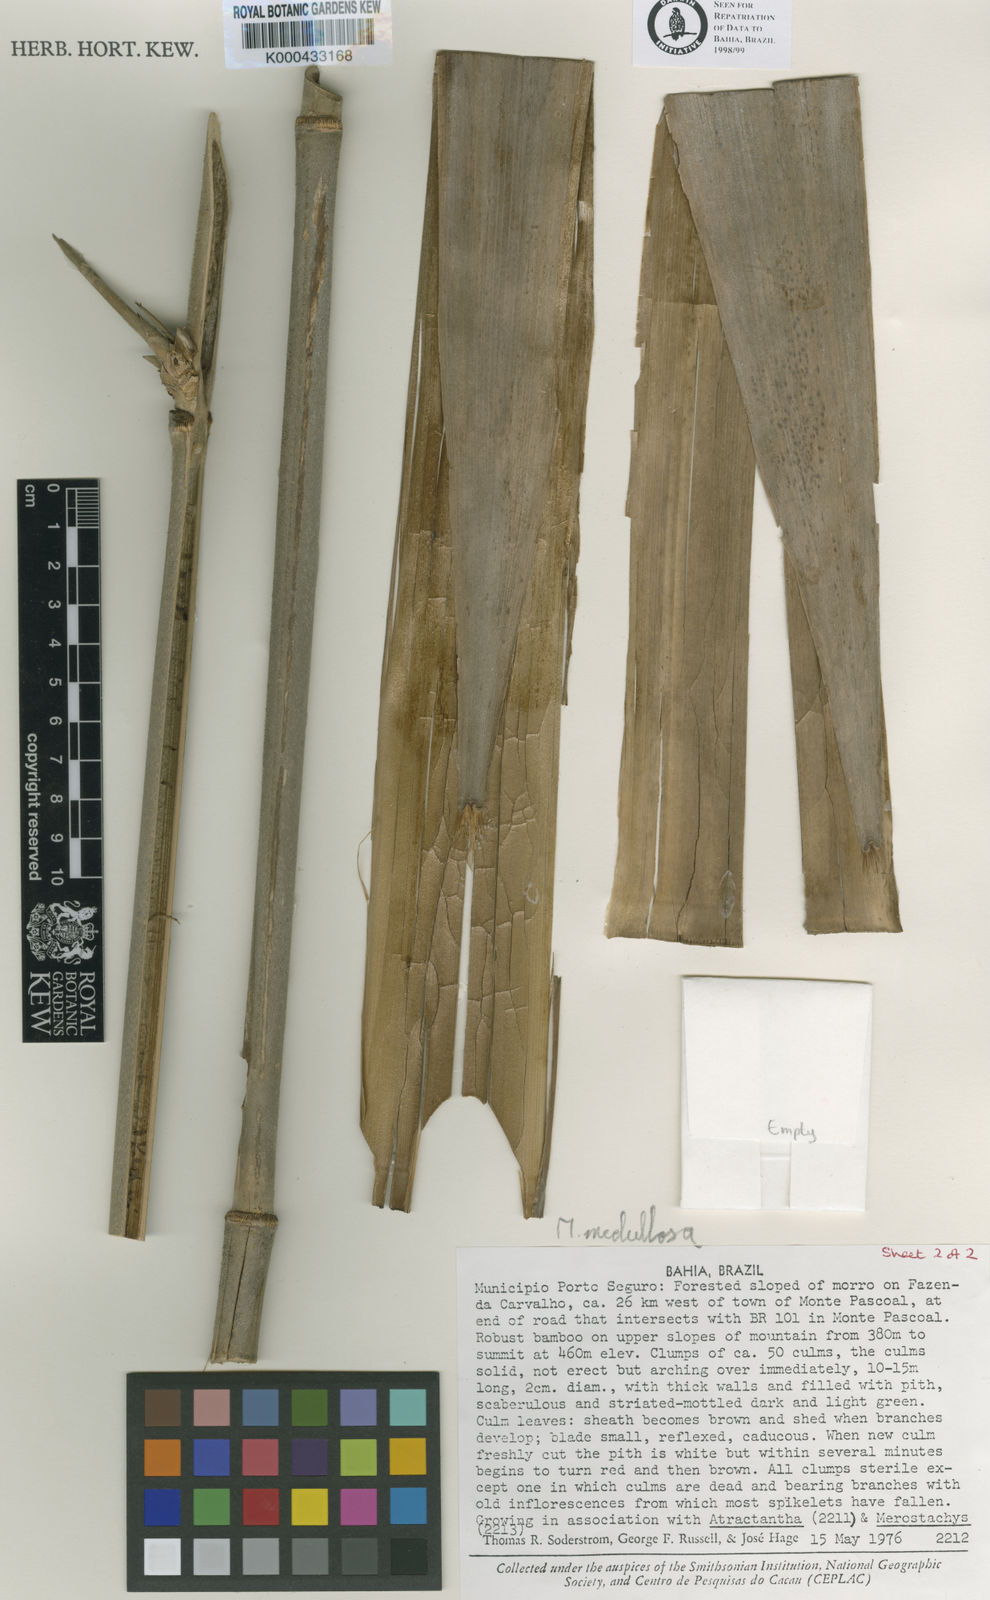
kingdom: Plantae
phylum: Tracheophyta
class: Liliopsida
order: Poales
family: Poaceae
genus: Merostachys
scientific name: Merostachys medullosa
